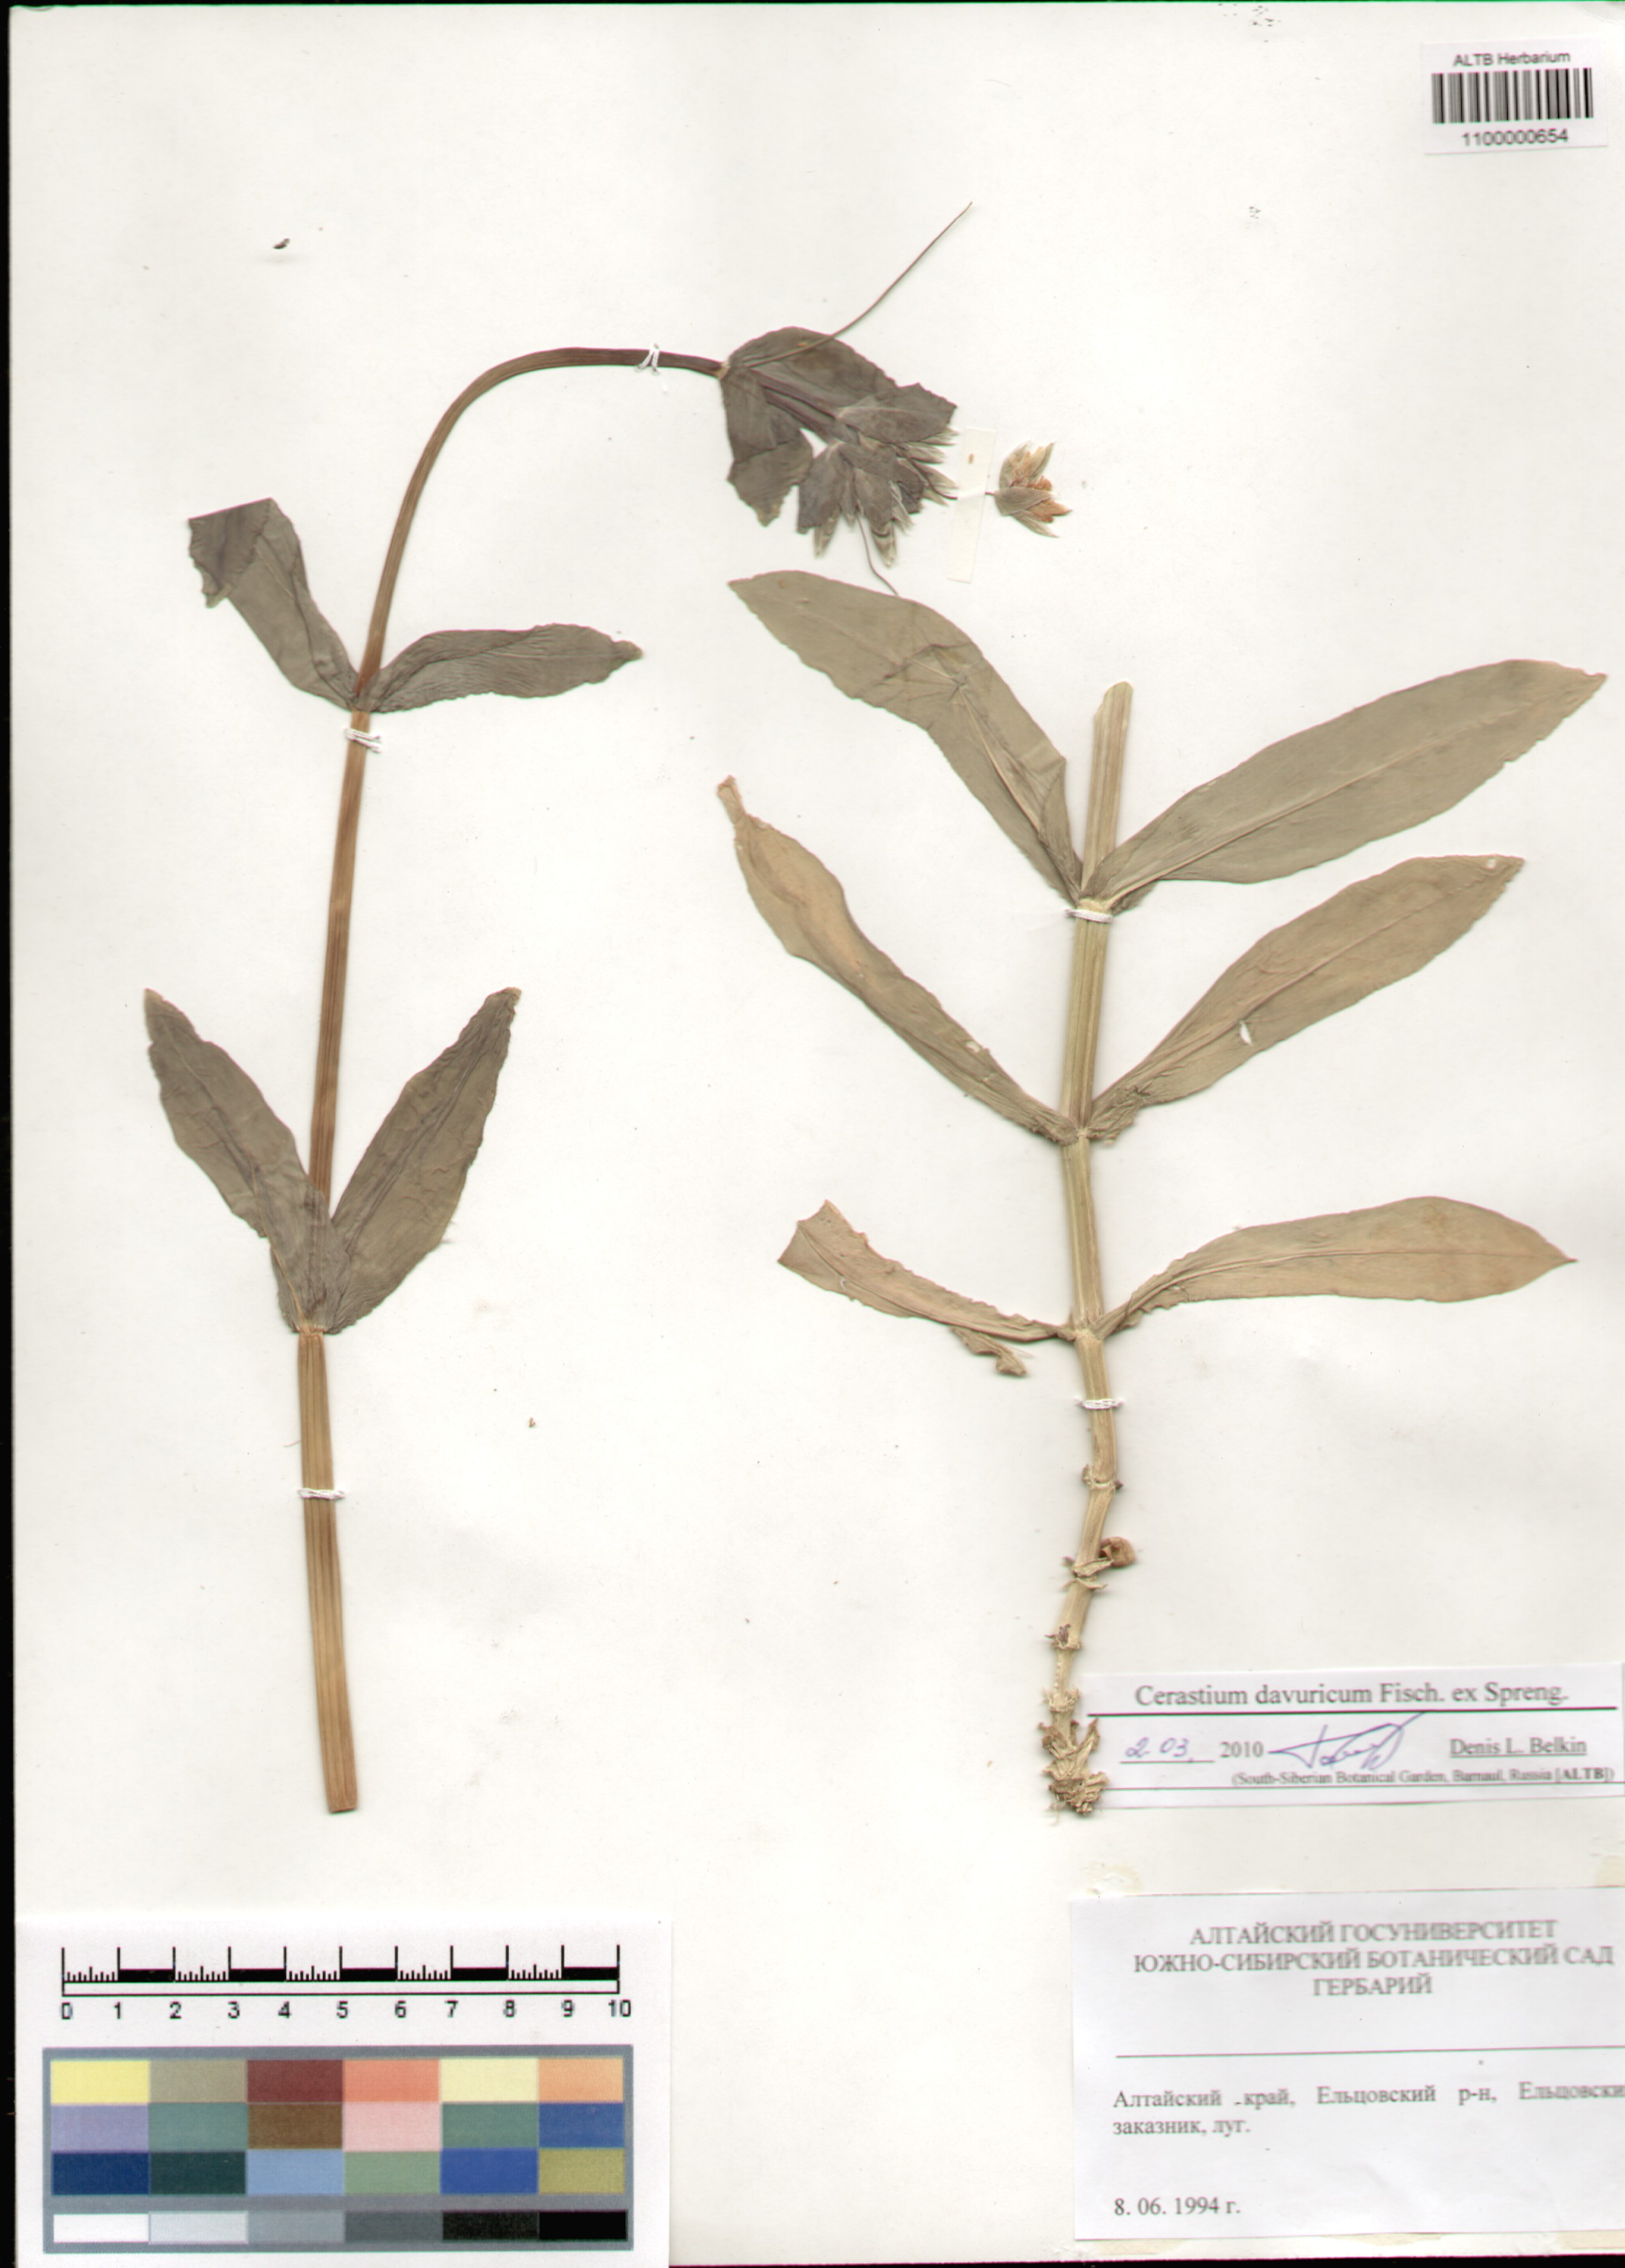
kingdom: Plantae
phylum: Tracheophyta
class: Magnoliopsida
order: Caryophyllales
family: Caryophyllaceae
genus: Dichodon
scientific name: Dichodon davuricum
